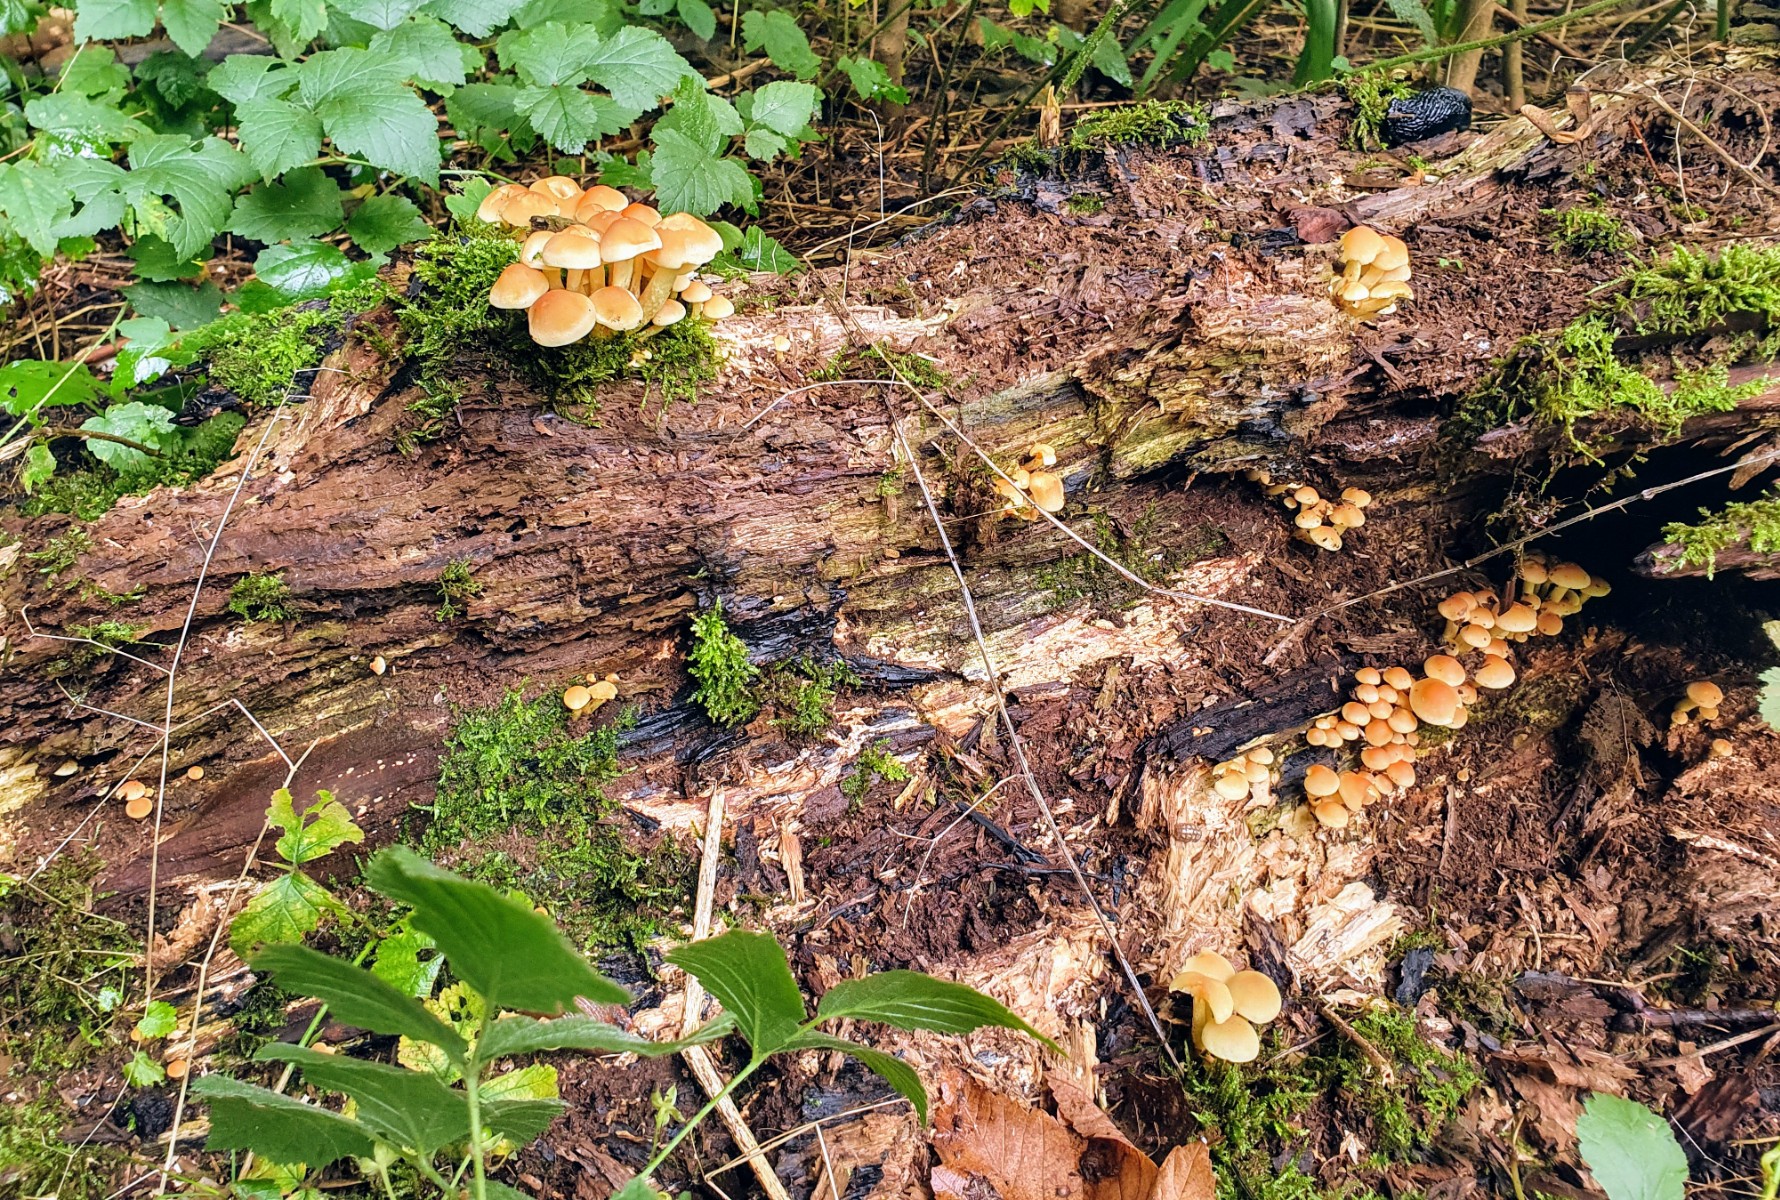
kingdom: Fungi
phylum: Basidiomycota
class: Agaricomycetes
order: Agaricales
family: Strophariaceae
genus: Hypholoma
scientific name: Hypholoma fasciculare
